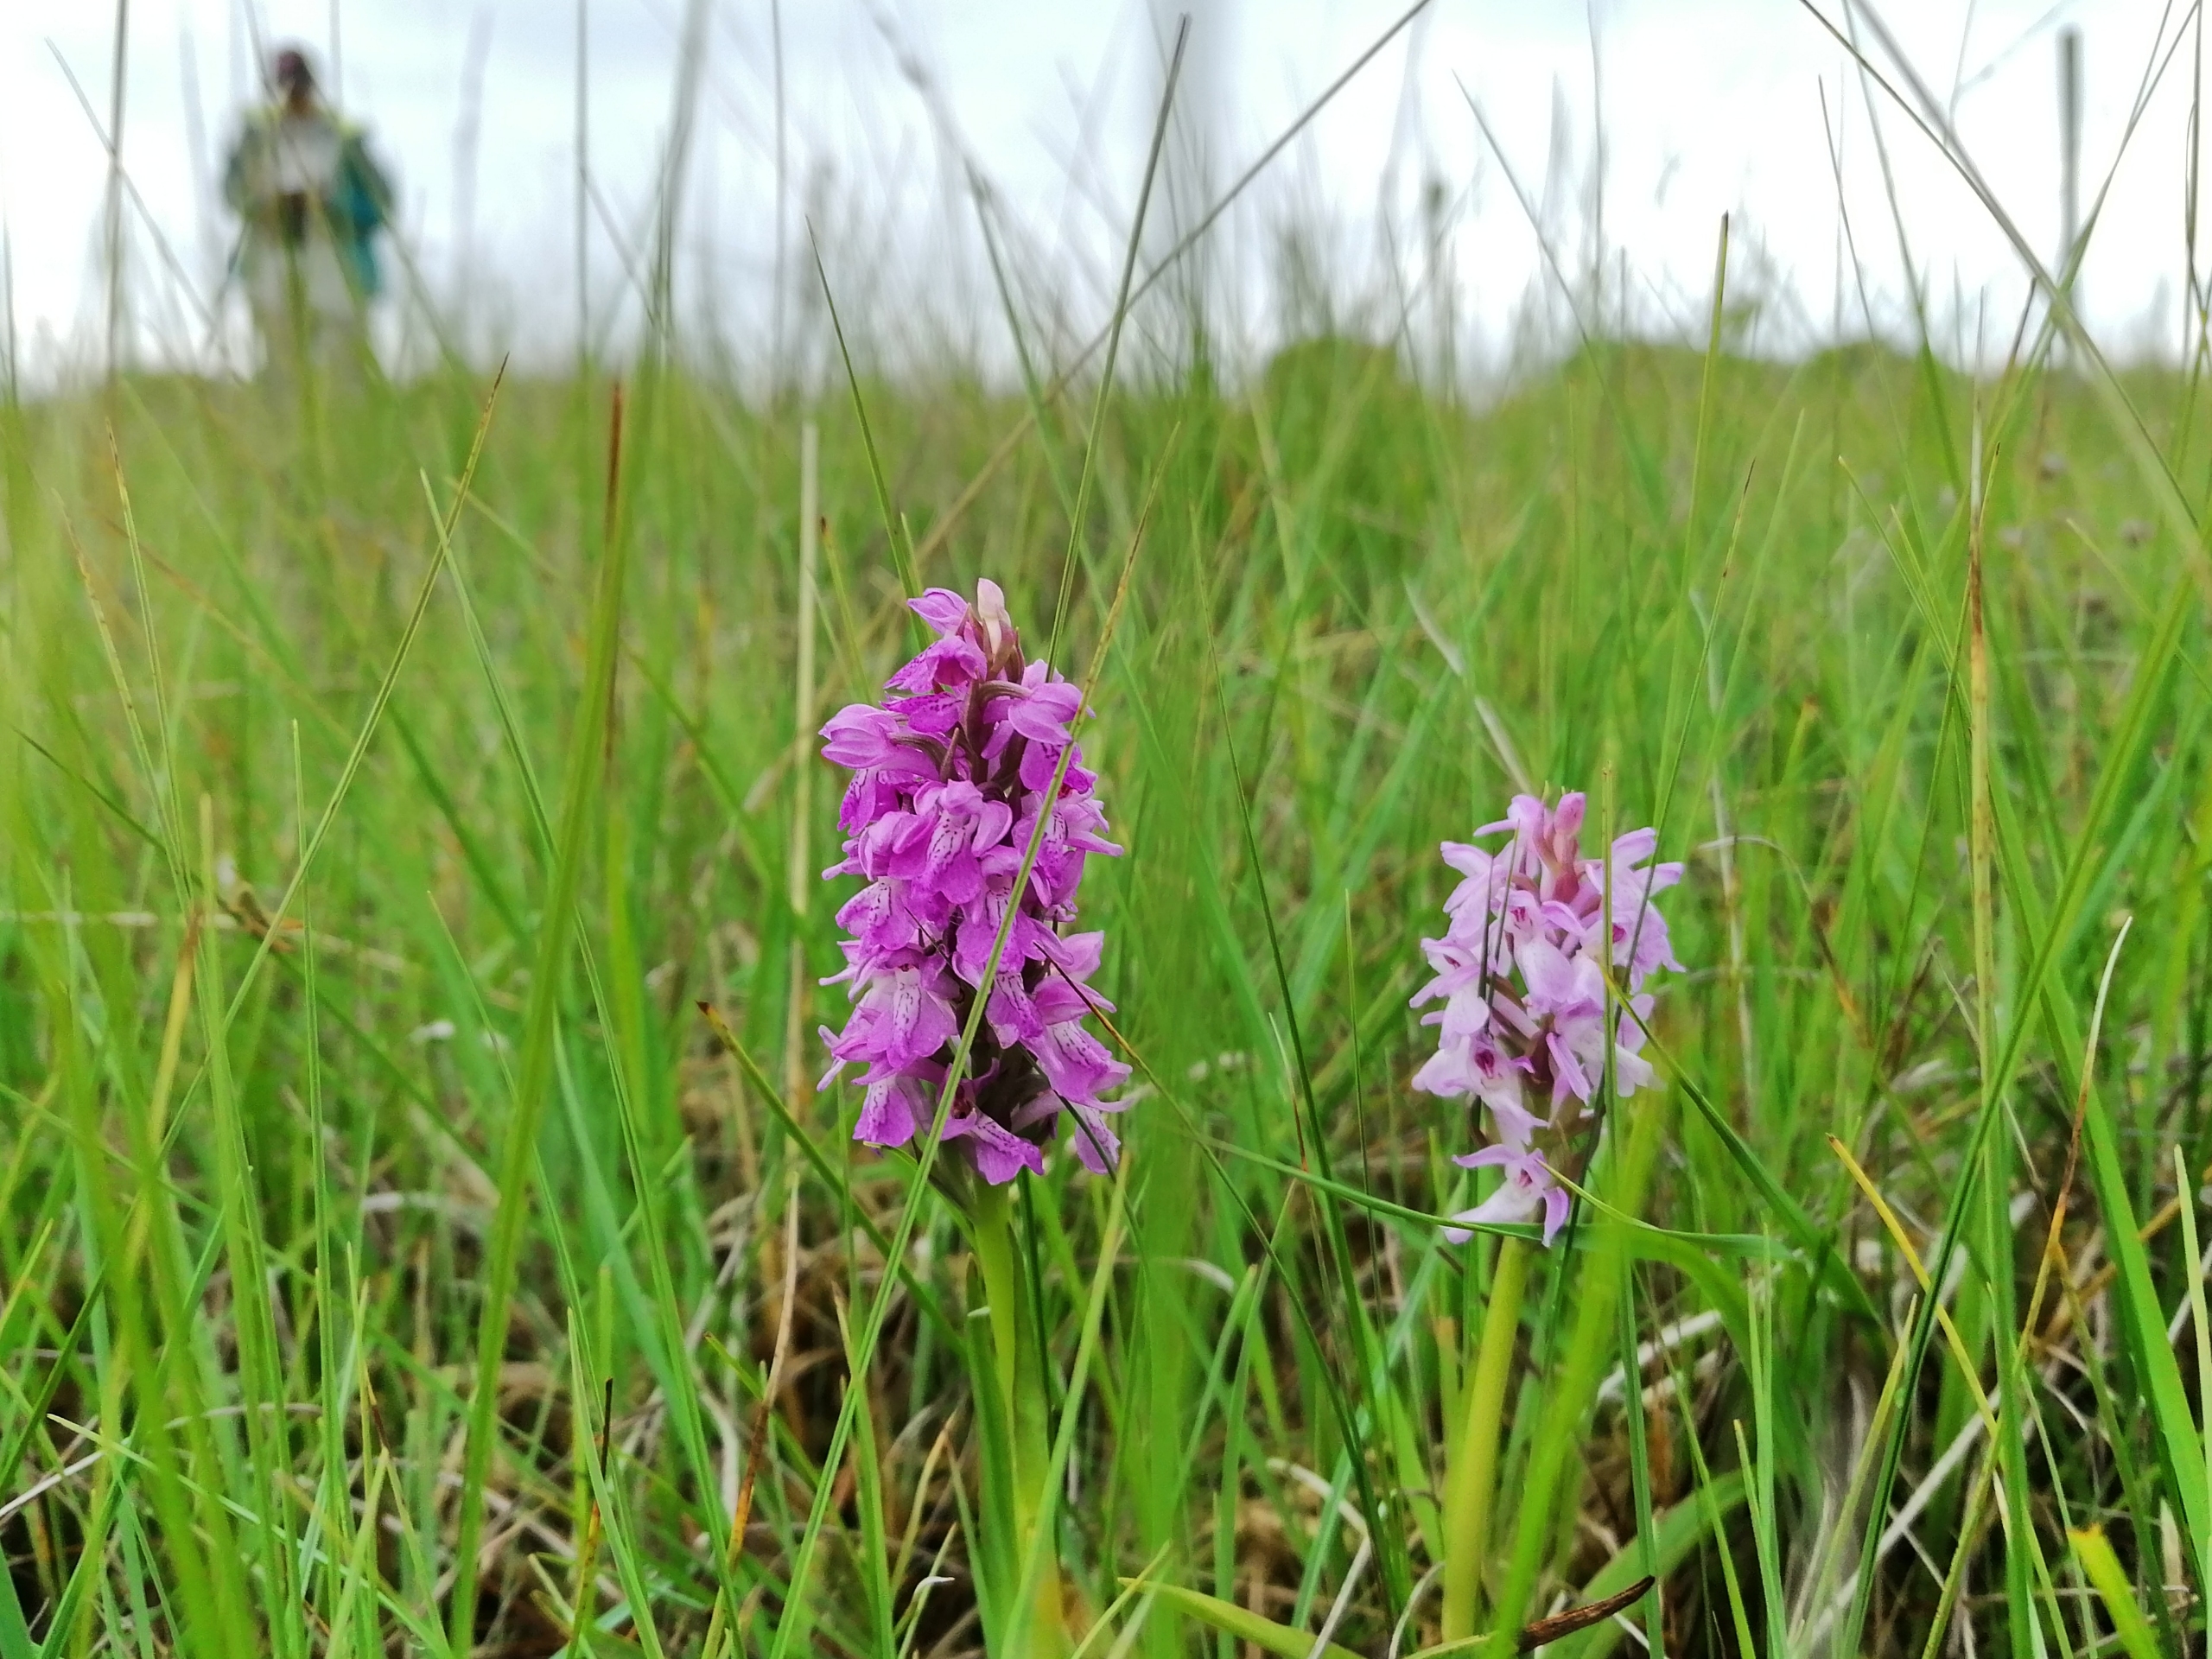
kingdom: Plantae
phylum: Tracheophyta
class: Liliopsida
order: Asparagales
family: Orchidaceae
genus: Dactylorhiza
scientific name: Dactylorhiza majalis
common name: Mos-gøgeurt
